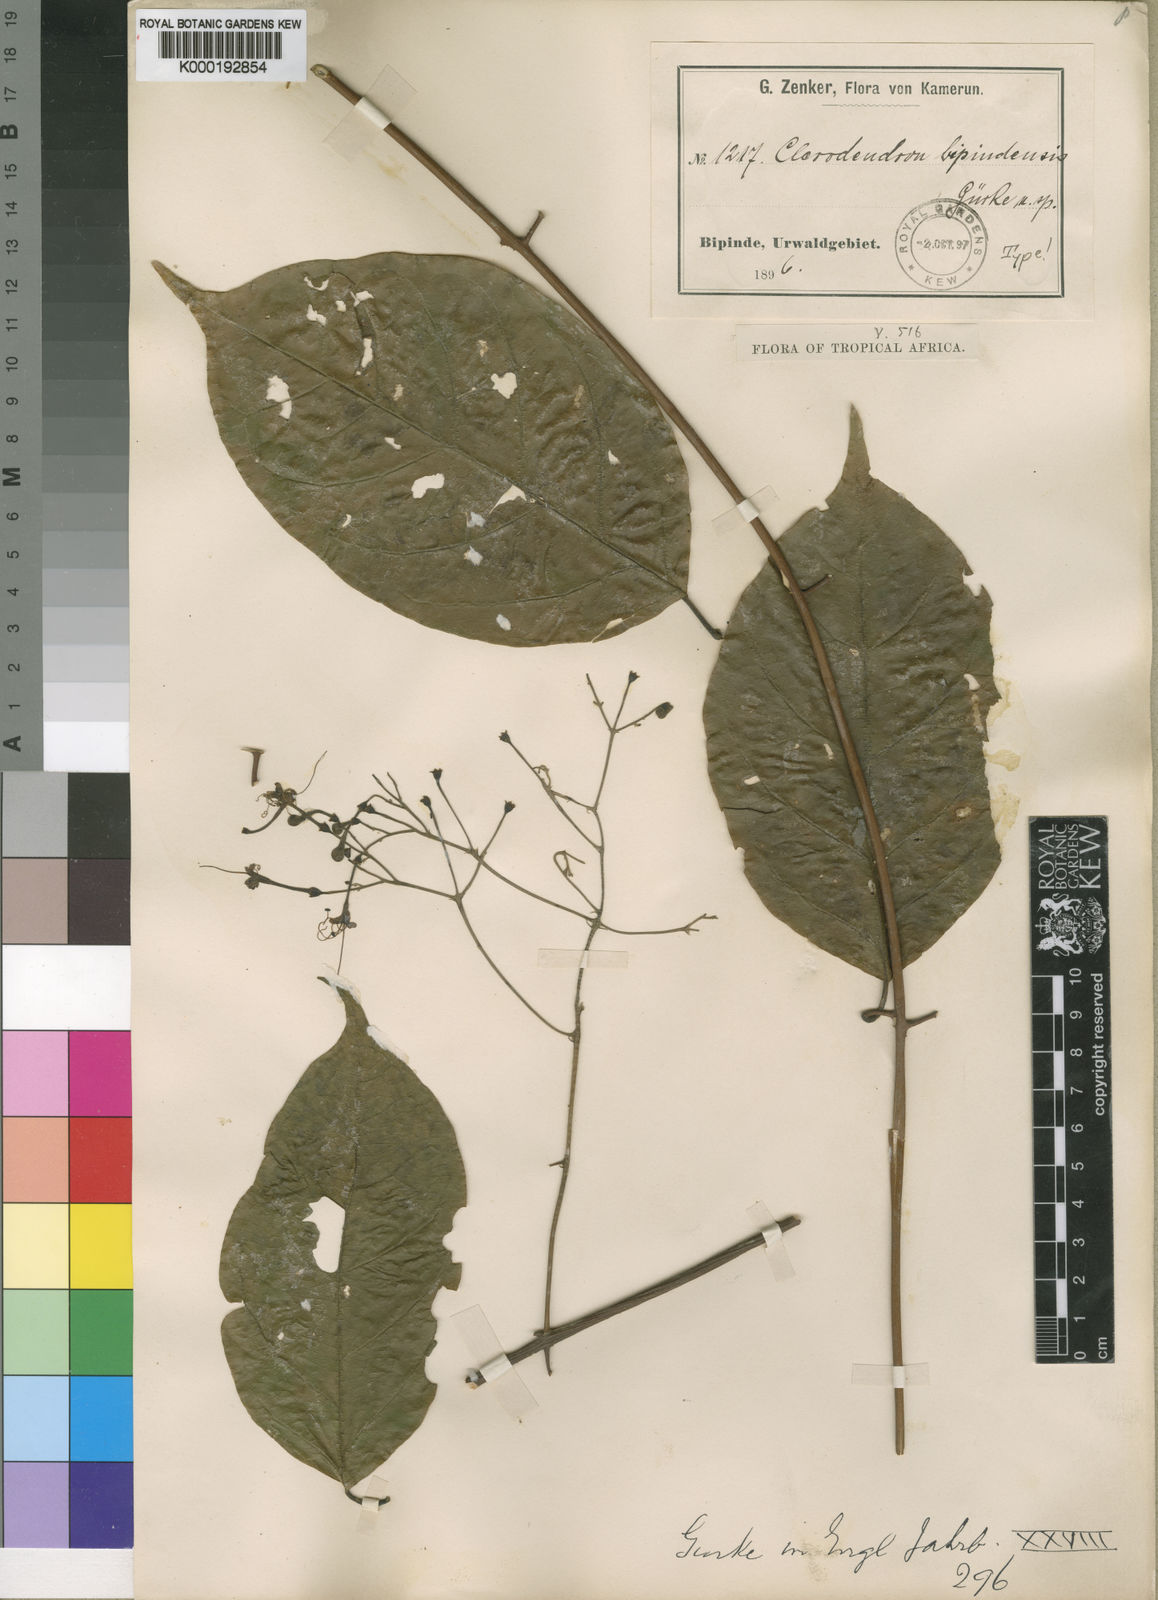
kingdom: Plantae
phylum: Tracheophyta
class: Magnoliopsida
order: Lamiales
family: Lamiaceae
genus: Clerodendrum
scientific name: Clerodendrum
